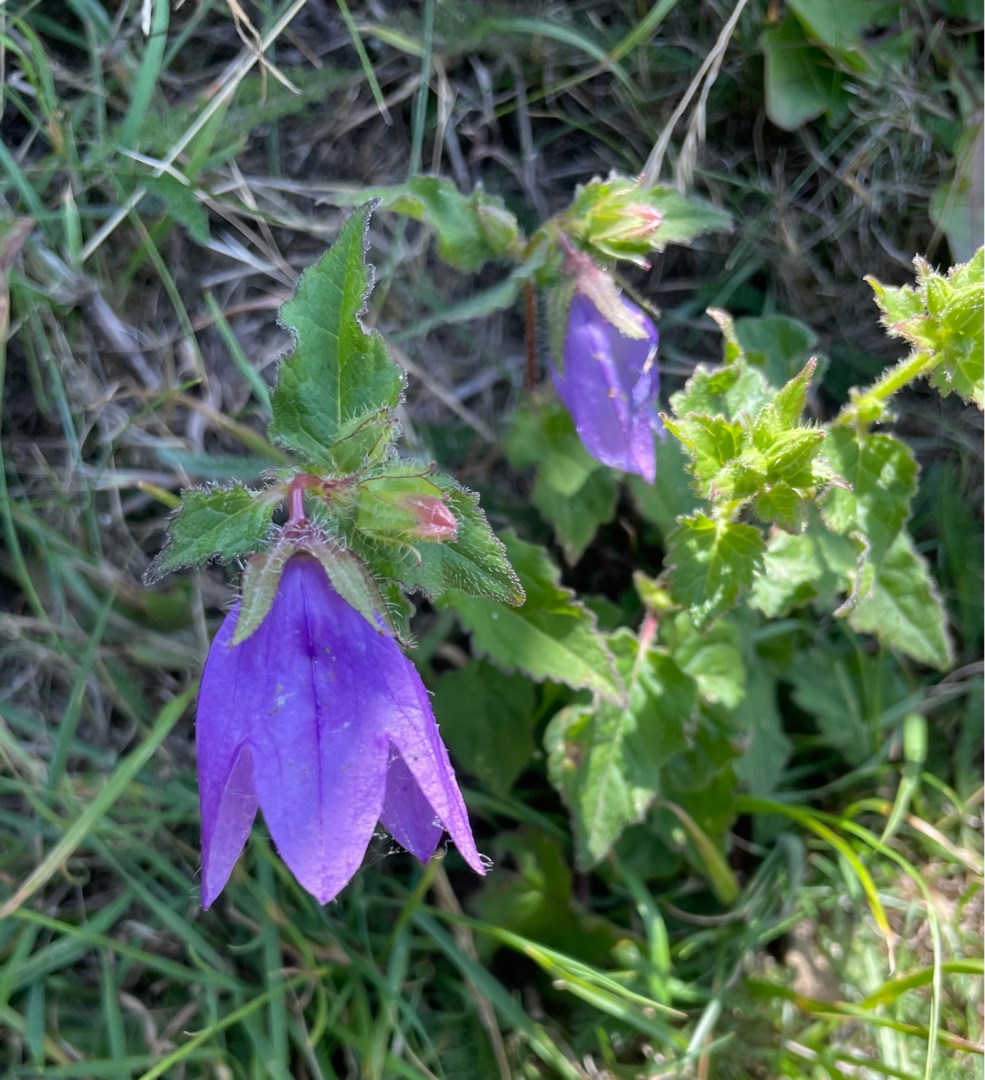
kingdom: Plantae
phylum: Tracheophyta
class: Magnoliopsida
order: Asterales
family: Campanulaceae
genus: Campanula
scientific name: Campanula trachelium
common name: Nælde-klokke
